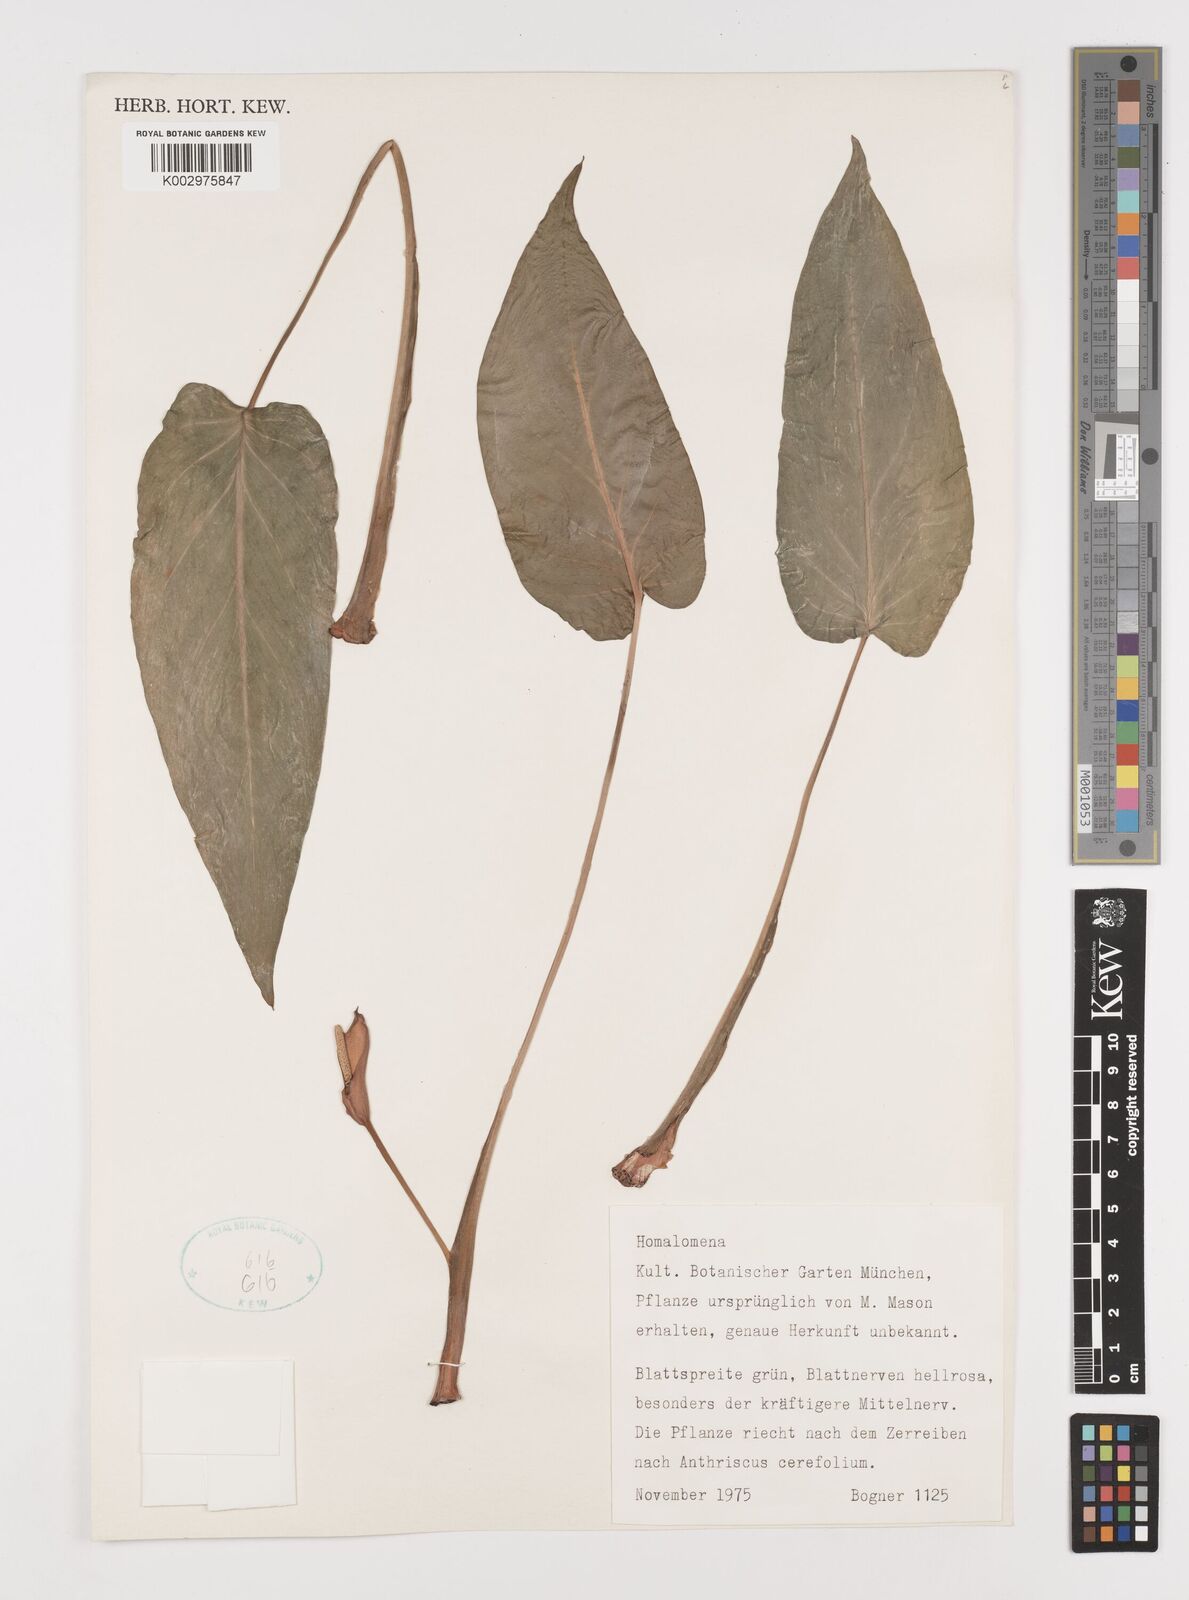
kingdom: Plantae
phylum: Tracheophyta
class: Liliopsida
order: Alismatales
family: Araceae
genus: Homalomena
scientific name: Homalomena
